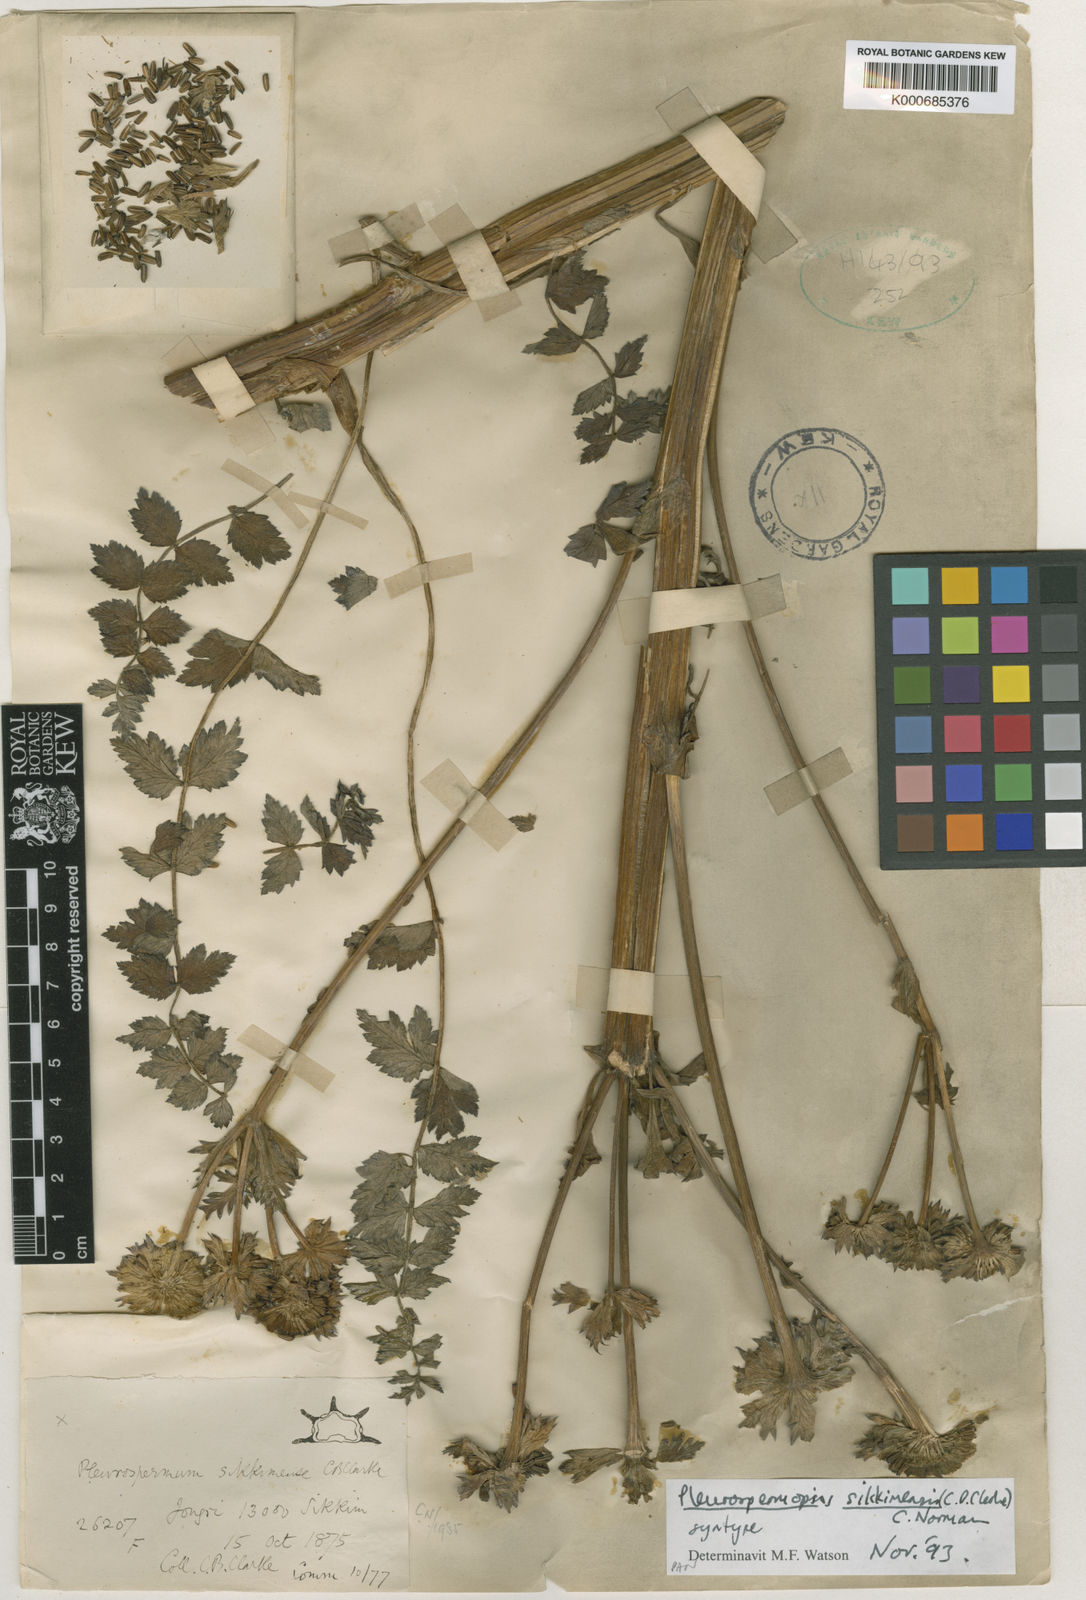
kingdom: Plantae
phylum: Tracheophyta
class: Magnoliopsida
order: Apiales
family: Apiaceae
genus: Pleurospermopsis
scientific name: Pleurospermopsis sikkimensis
